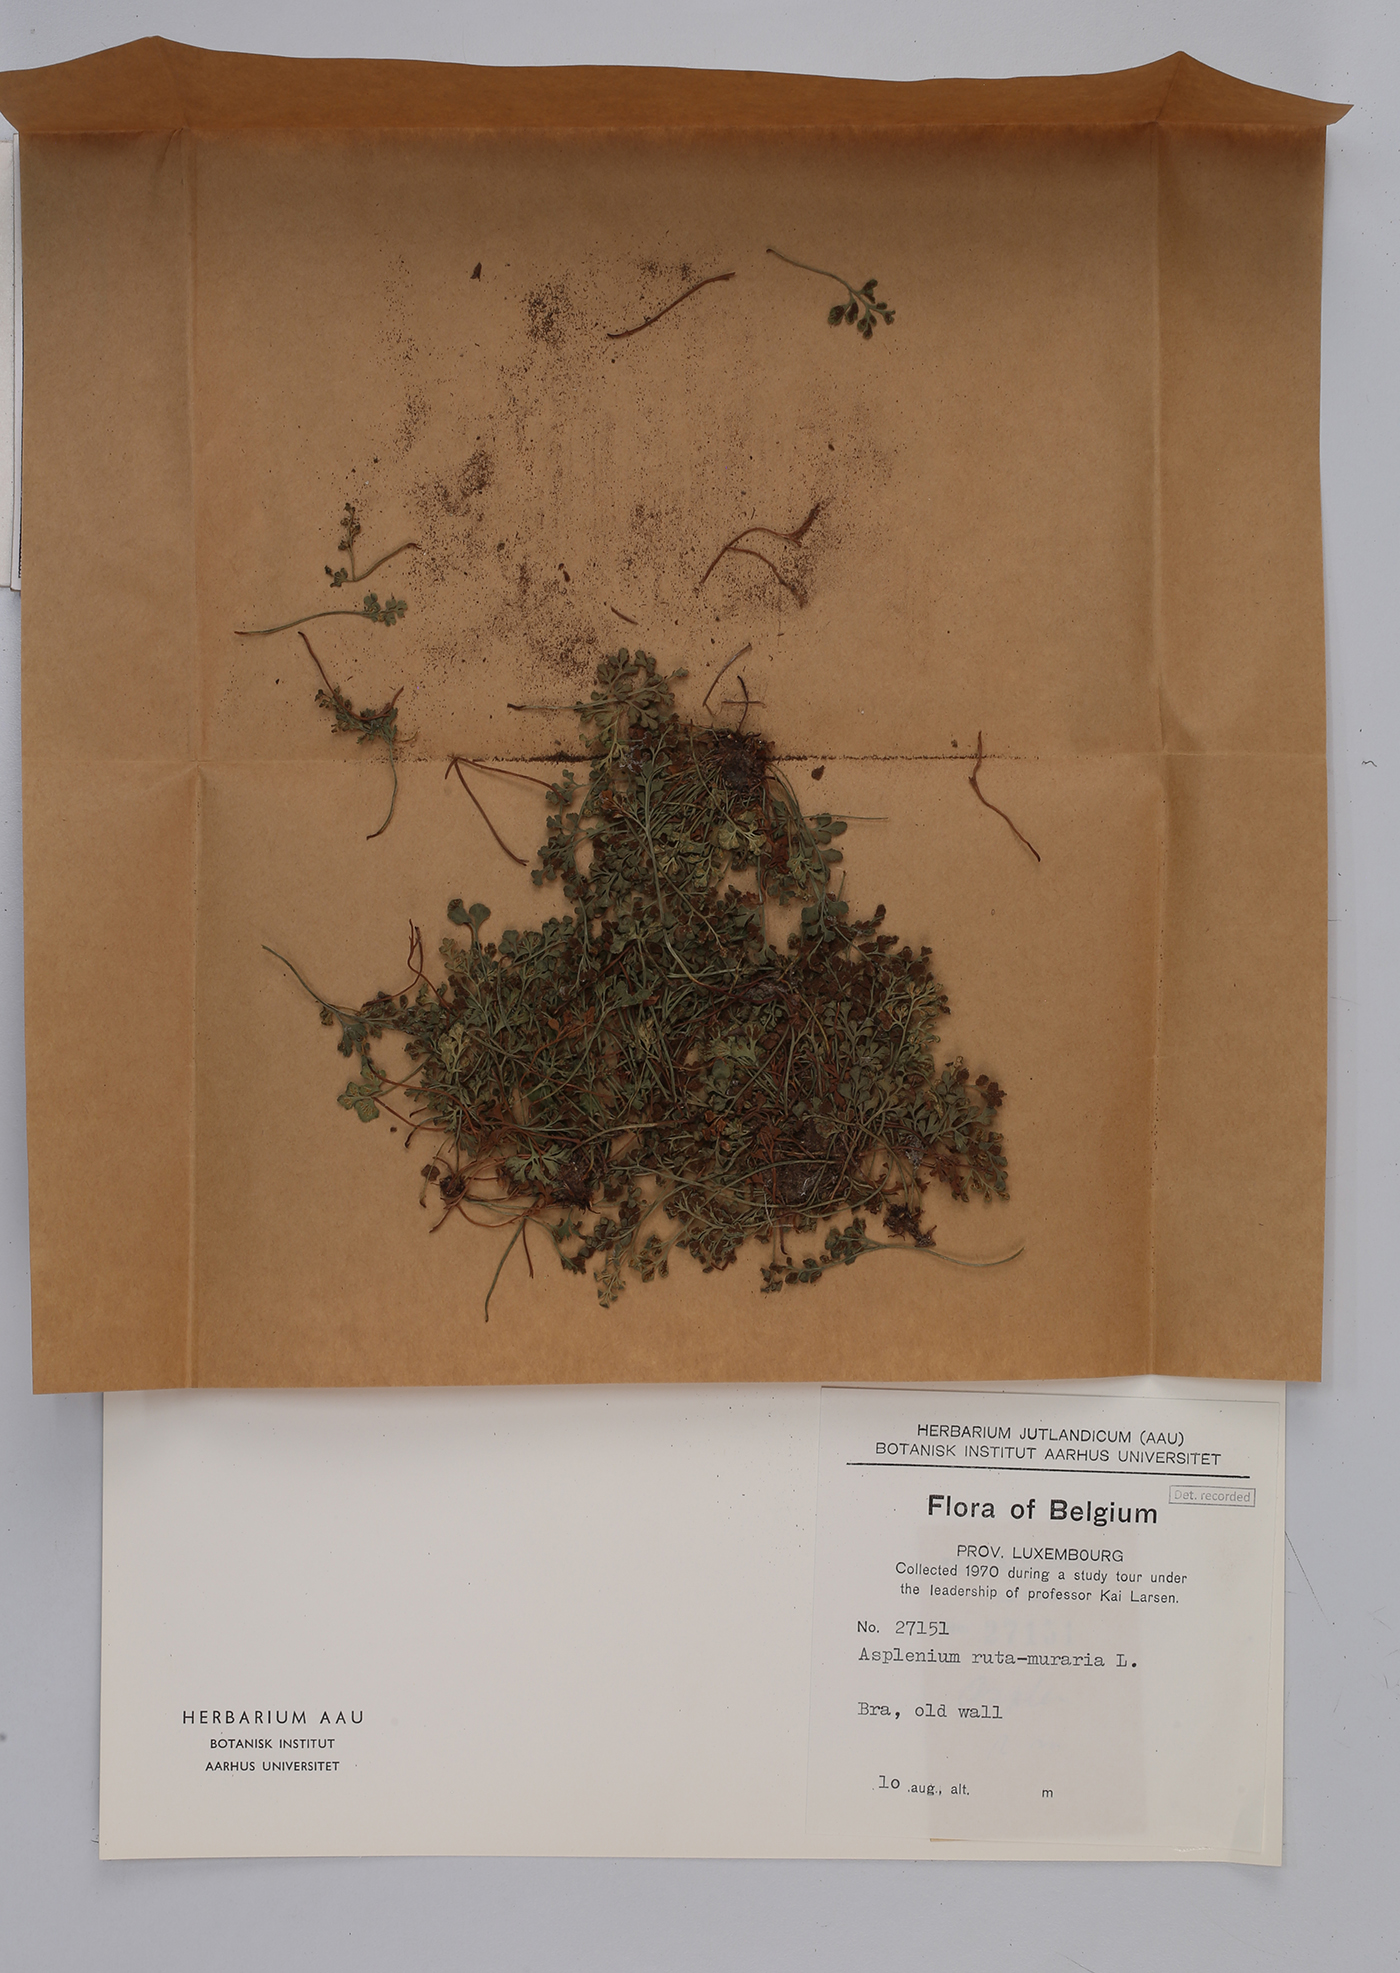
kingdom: Plantae
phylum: Tracheophyta
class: Polypodiopsida
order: Polypodiales
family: Aspleniaceae
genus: Asplenium
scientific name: Asplenium ruta-muraria
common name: Wall-rue
